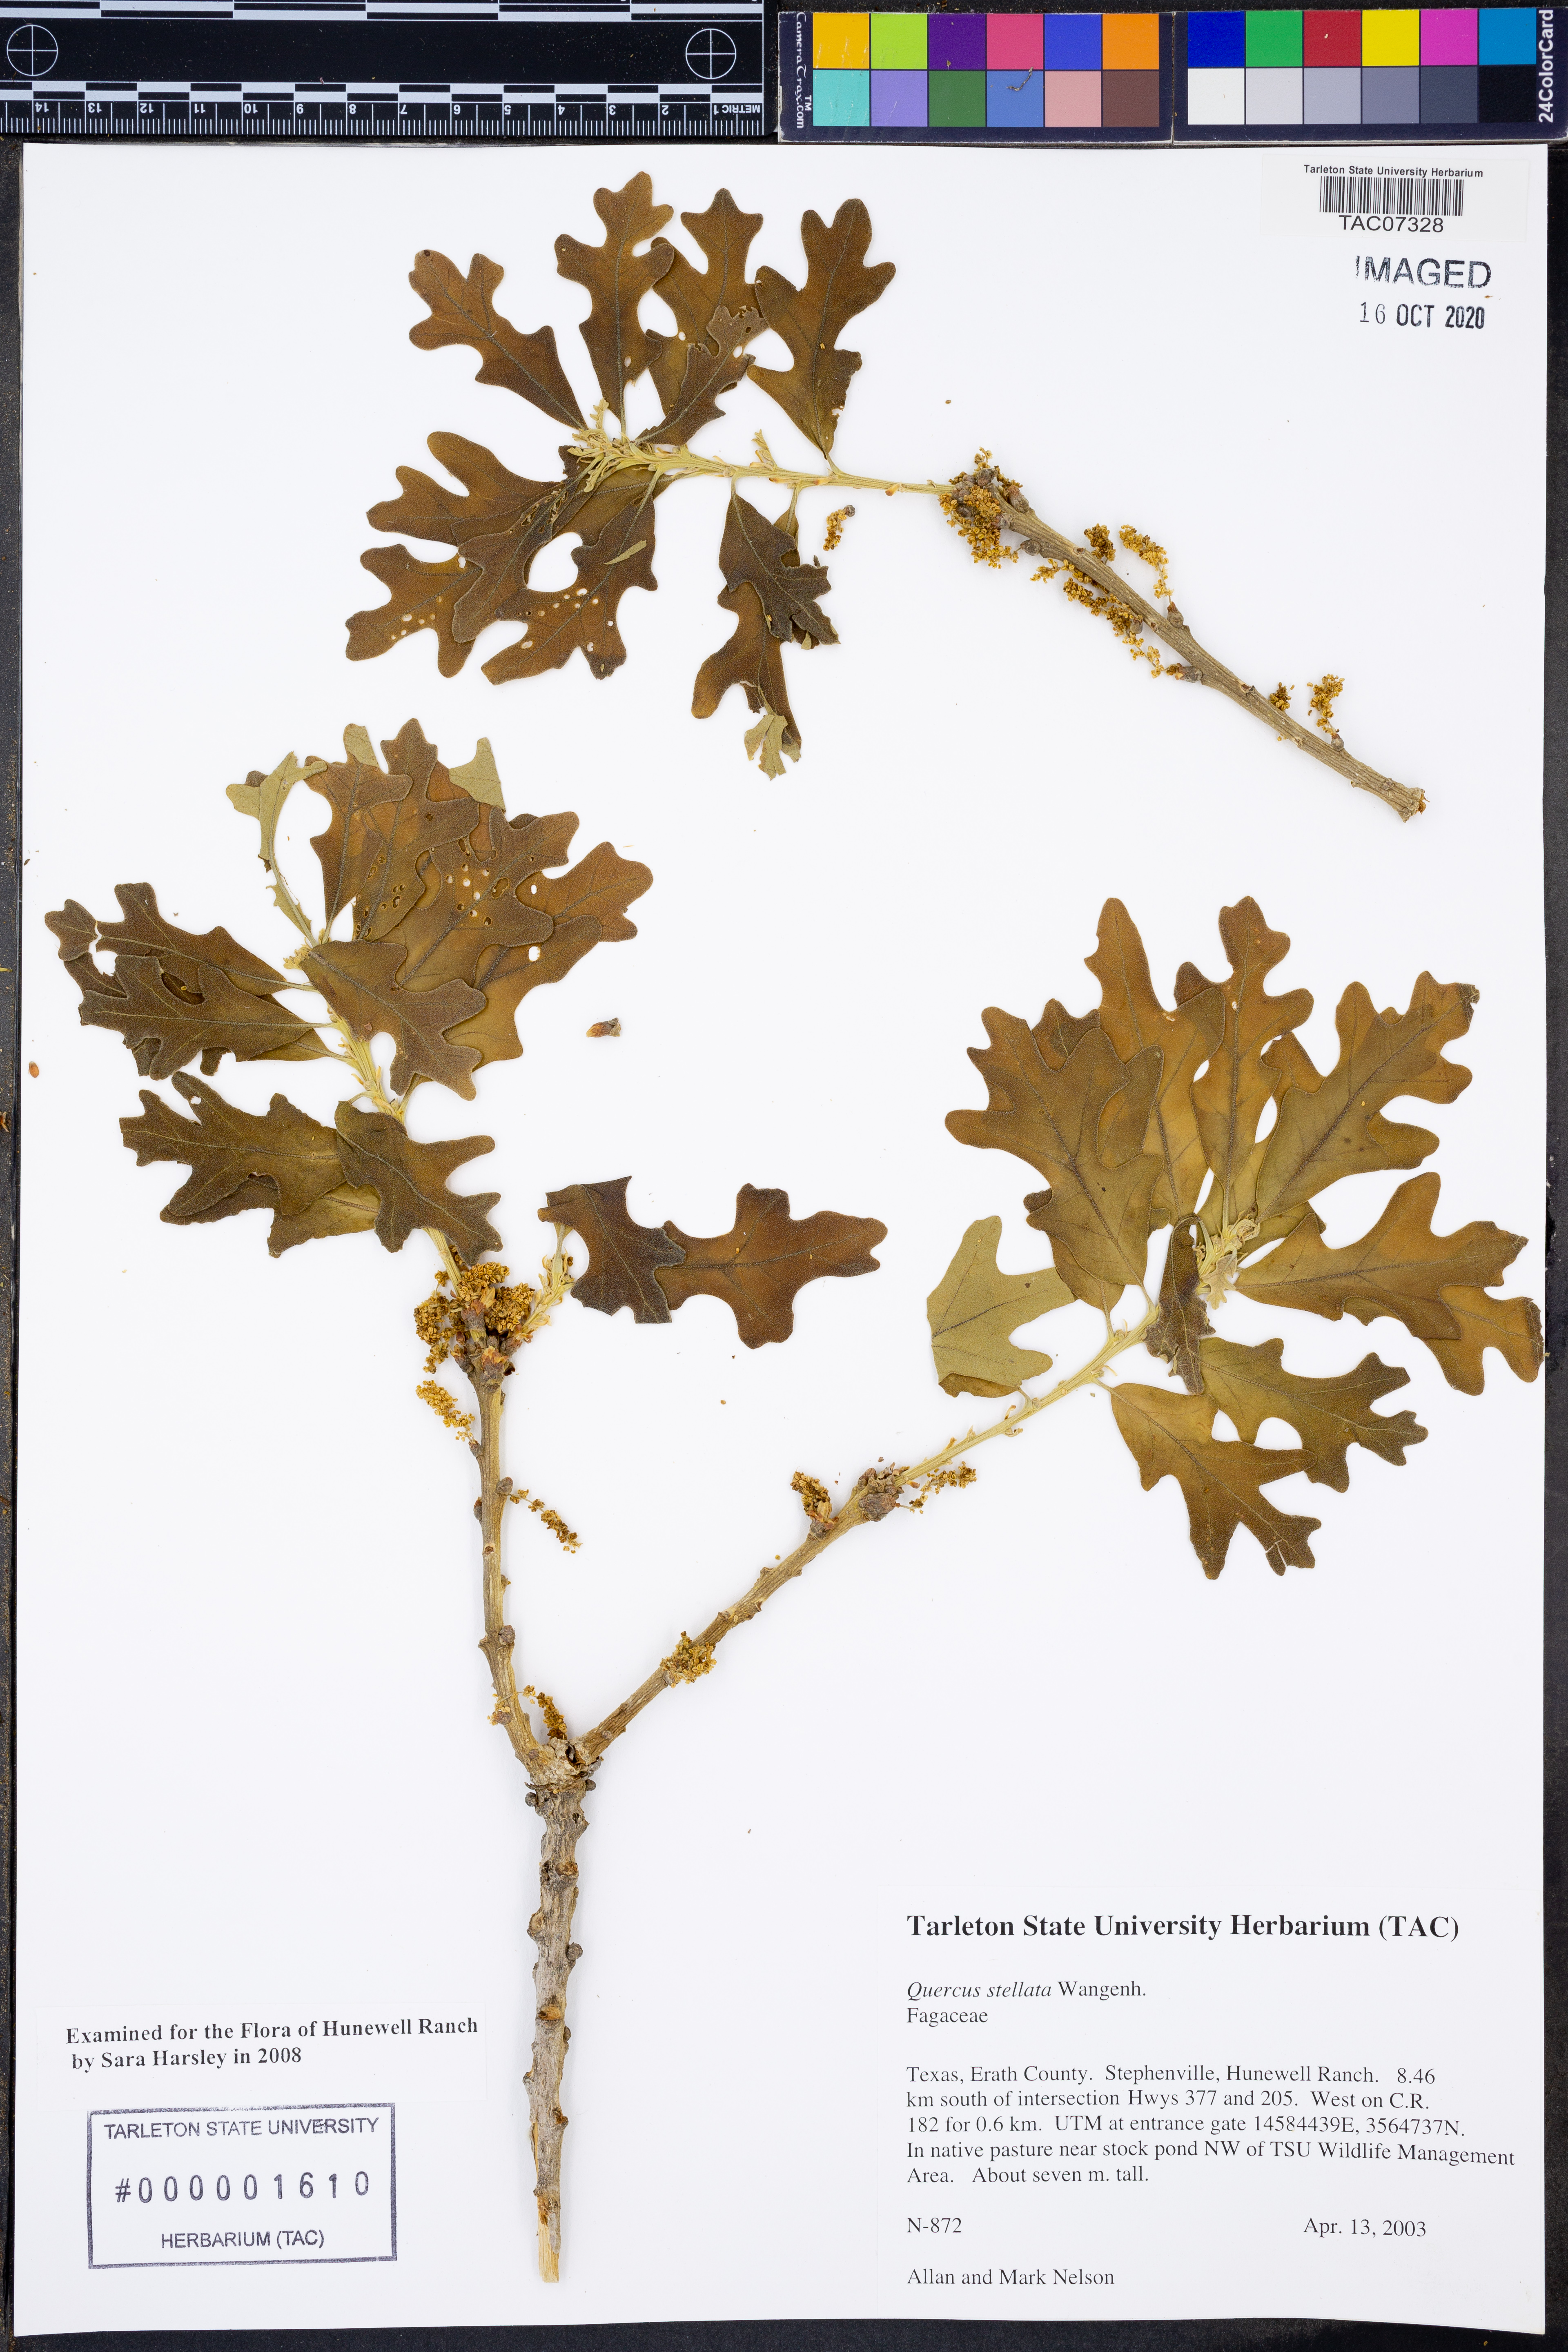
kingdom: Plantae
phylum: Tracheophyta
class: Magnoliopsida
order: Fagales
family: Fagaceae
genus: Quercus
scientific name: Quercus stellata
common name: Post oak
